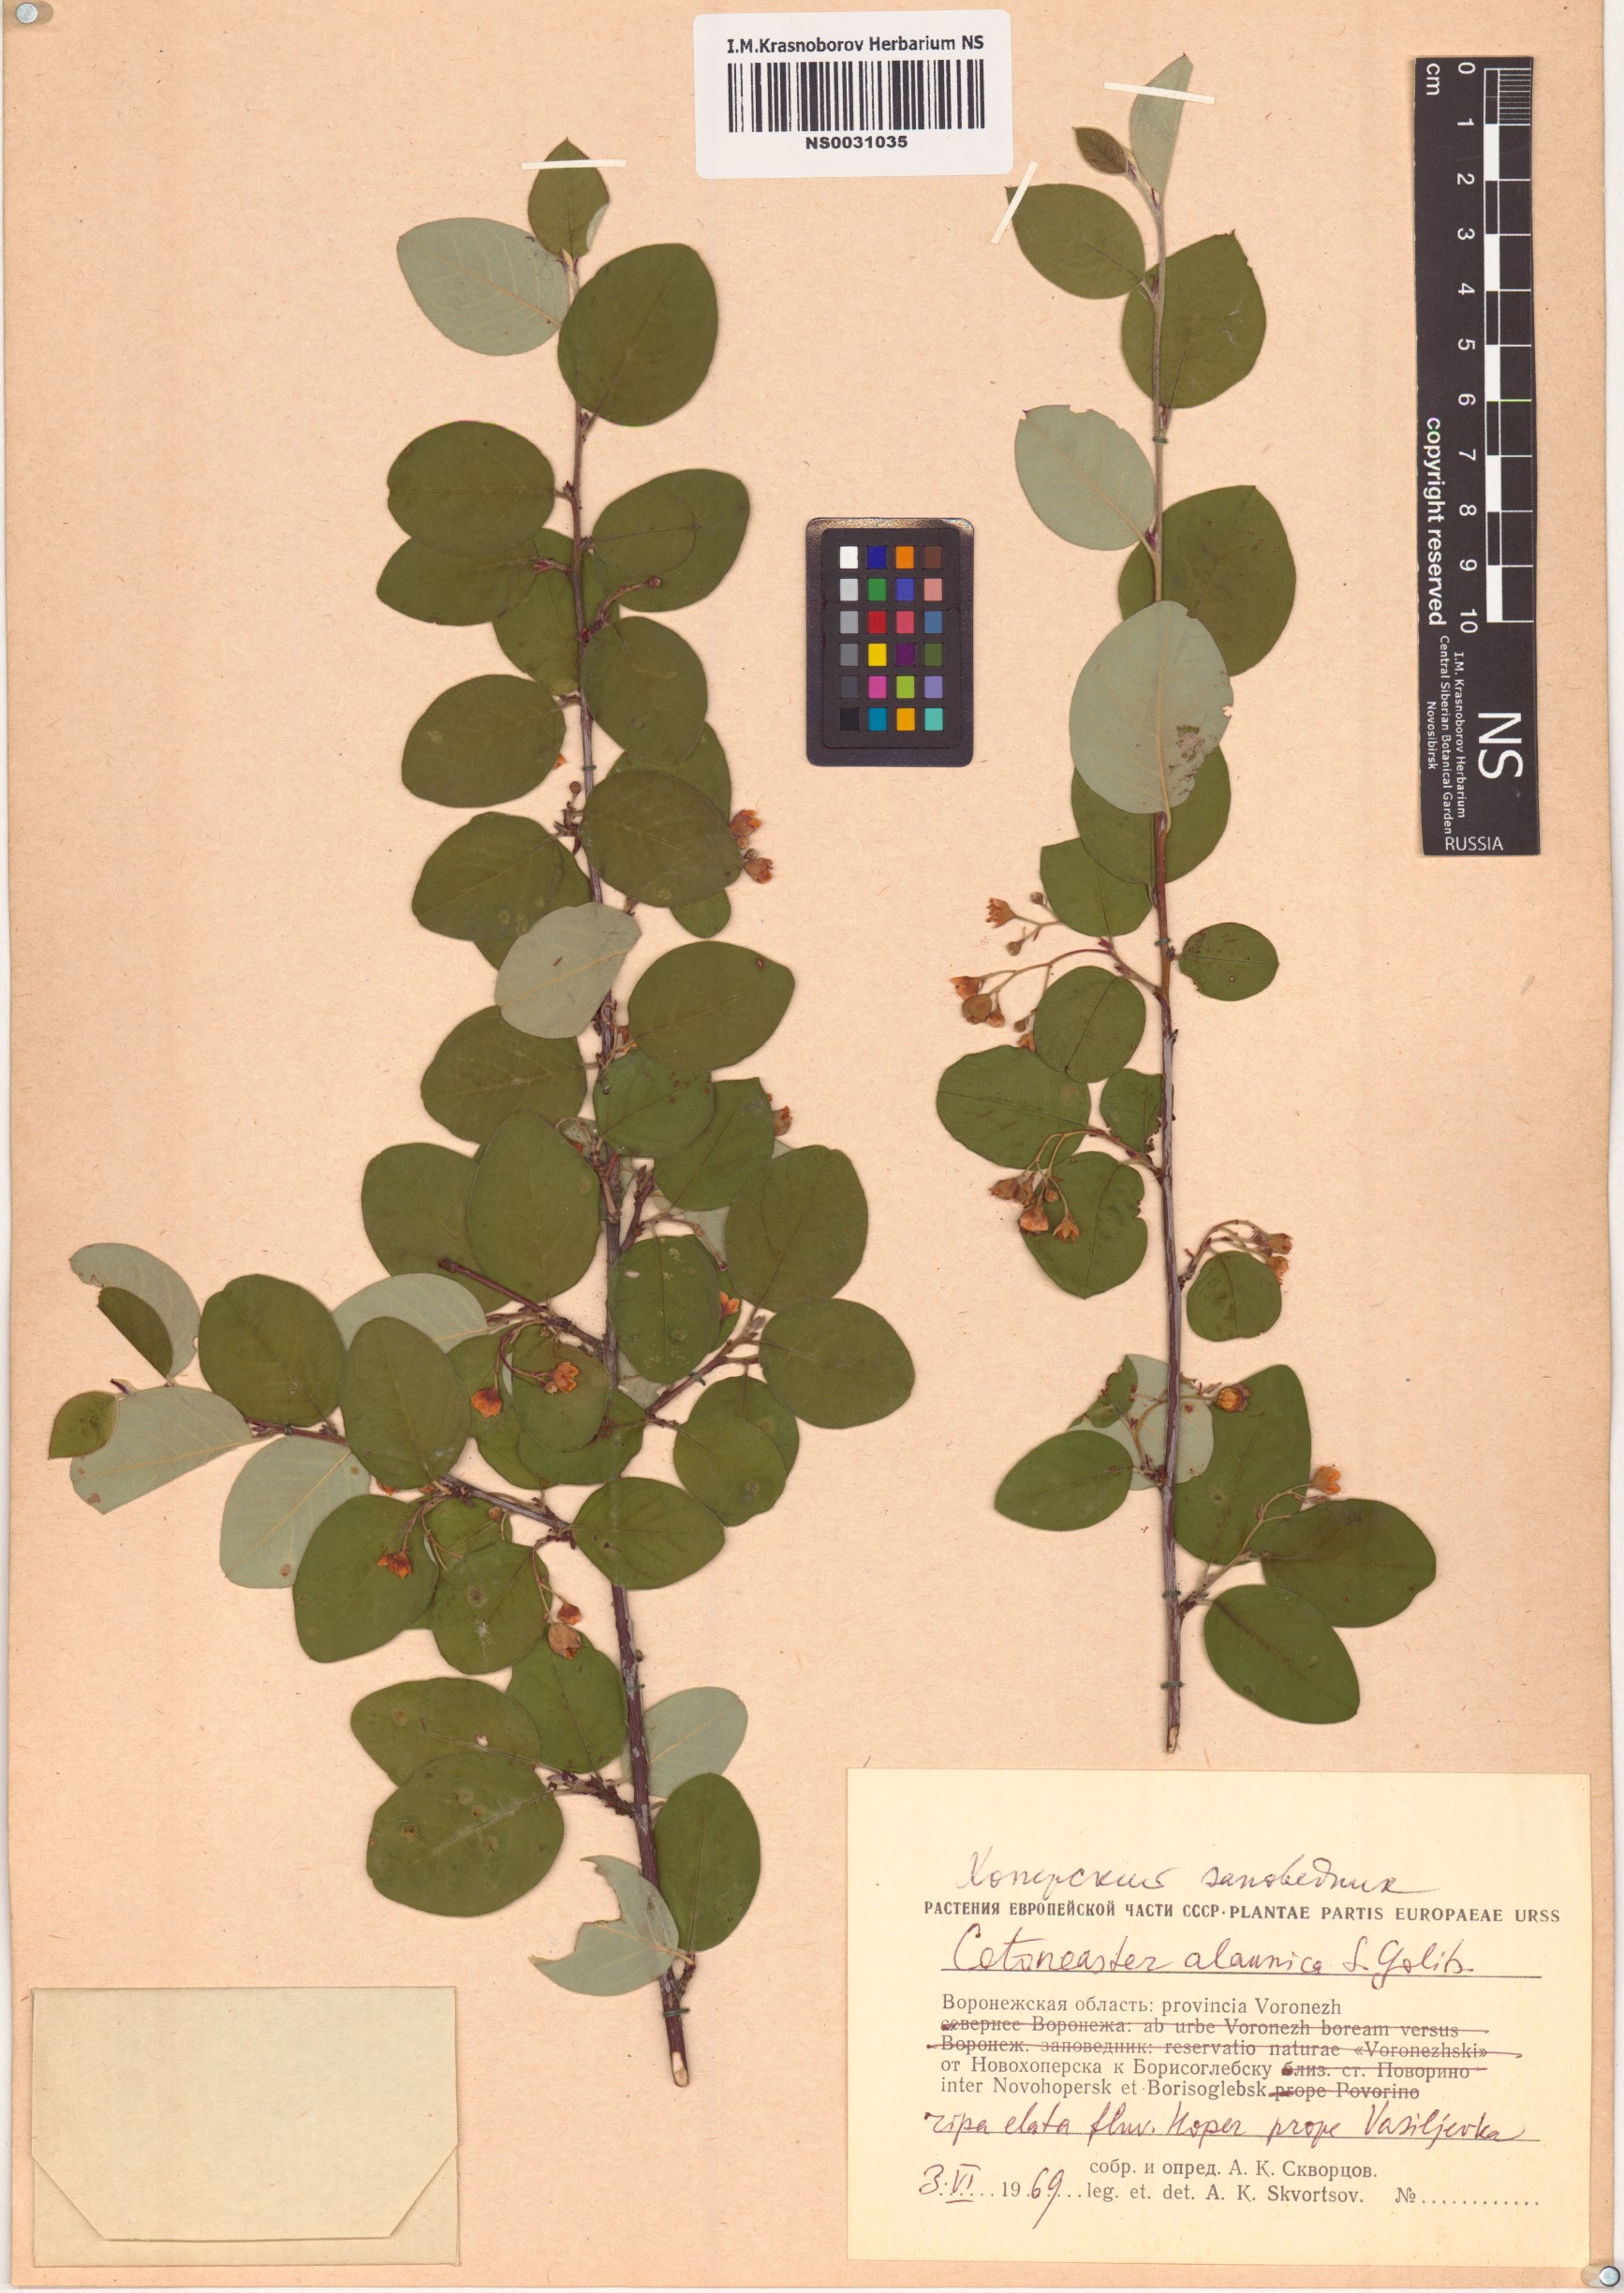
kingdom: Plantae
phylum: Tracheophyta
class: Magnoliopsida
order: Rosales
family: Rosaceae
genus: Cotoneaster
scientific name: Cotoneaster alaunicus
